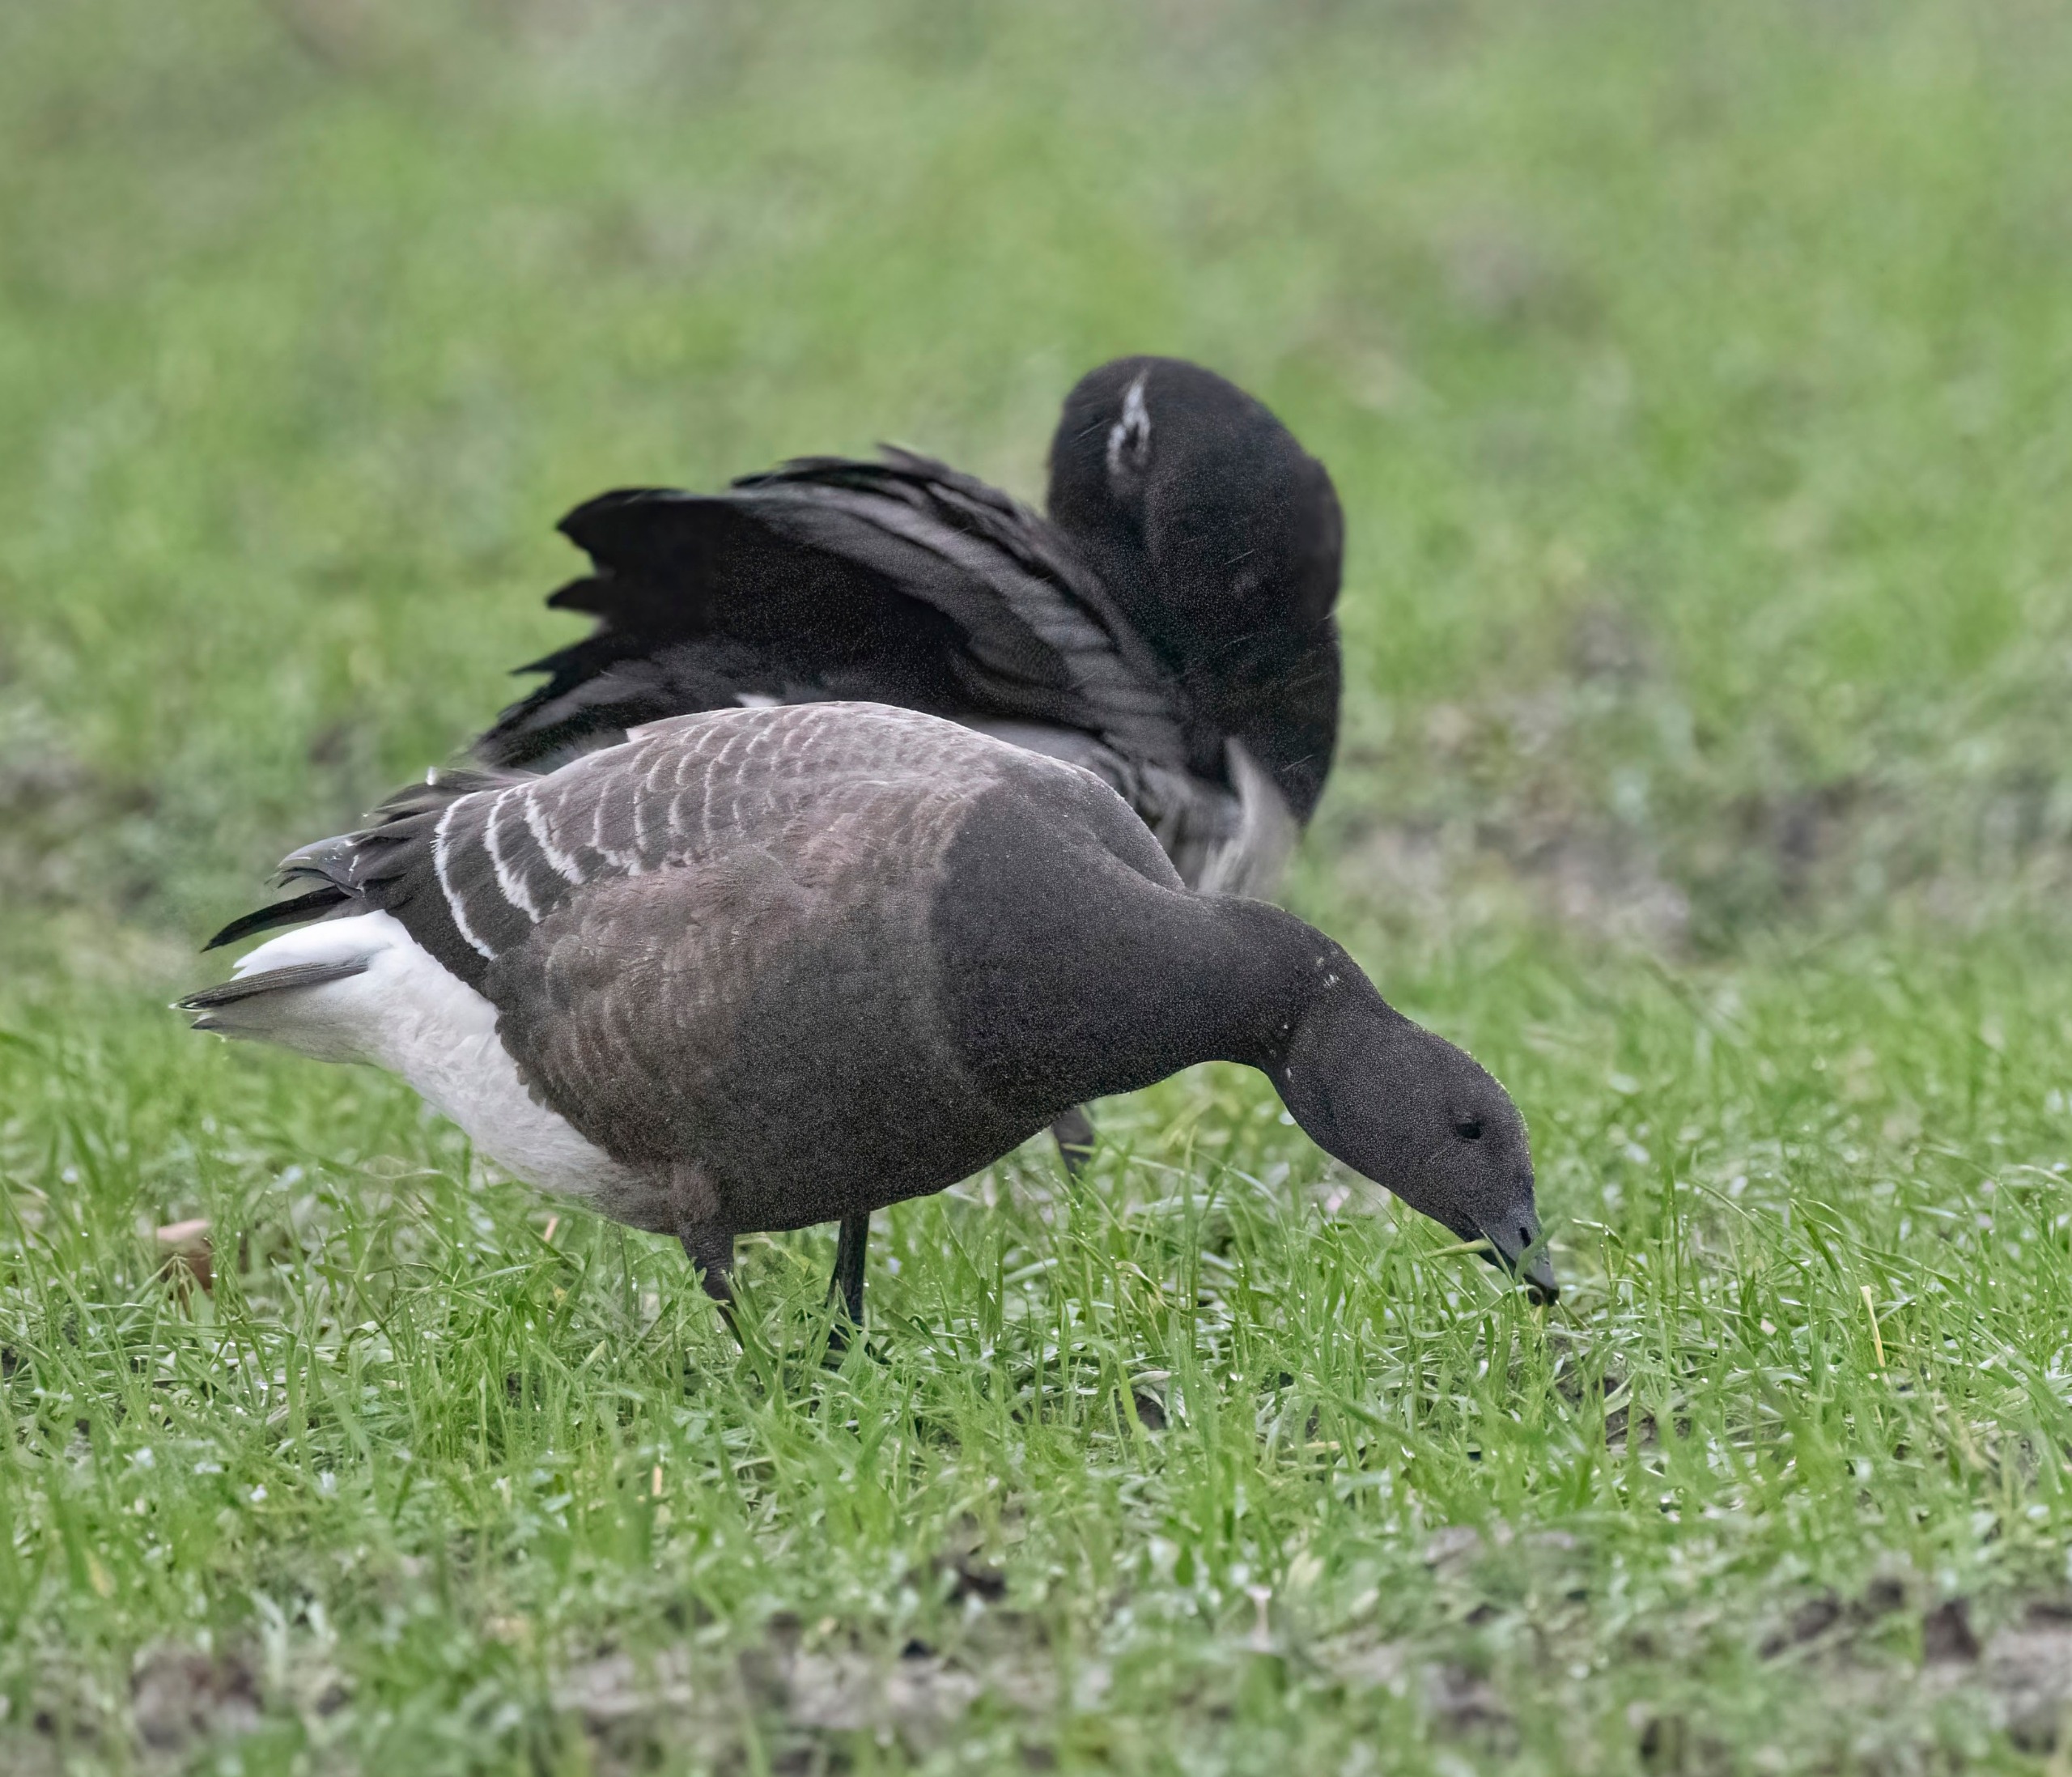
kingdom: Animalia
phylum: Chordata
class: Aves
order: Anseriformes
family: Anatidae
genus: Branta
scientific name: Branta bernicla
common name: Knortegås
